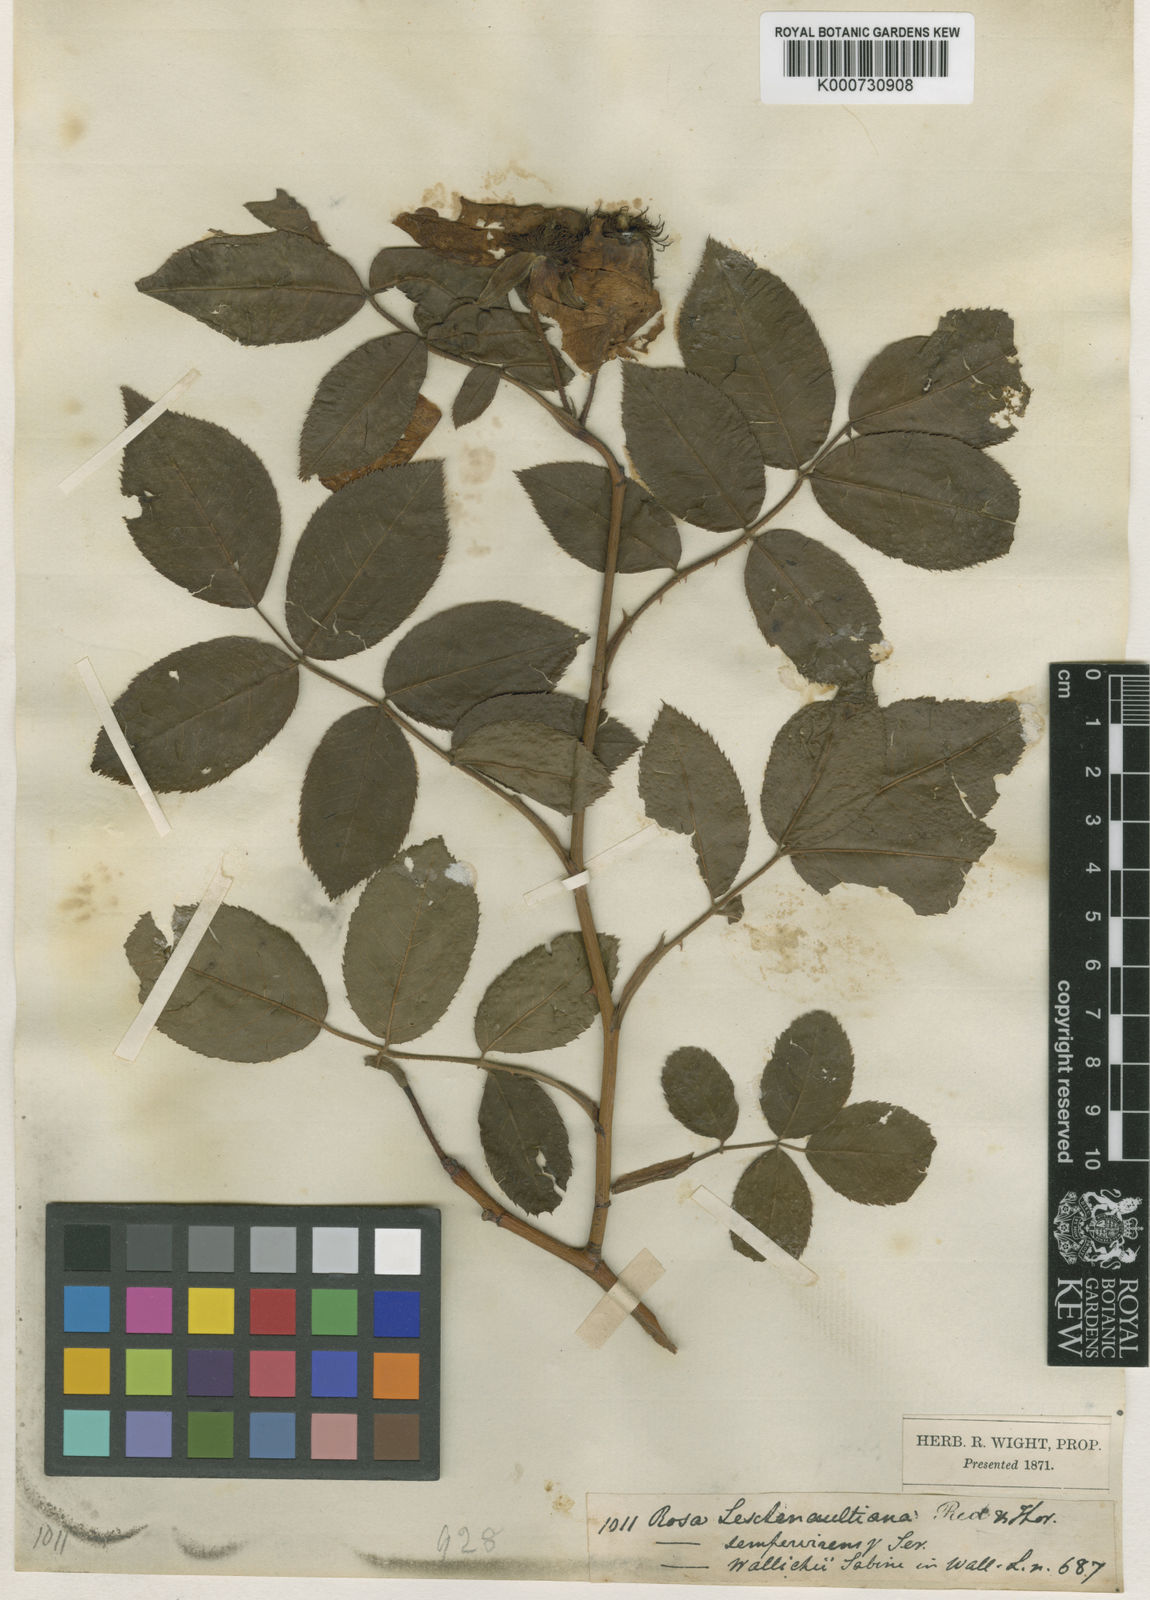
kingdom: Plantae
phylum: Tracheophyta
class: Magnoliopsida
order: Rosales
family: Rosaceae
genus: Rosa
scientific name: Rosa leschenaultiana
